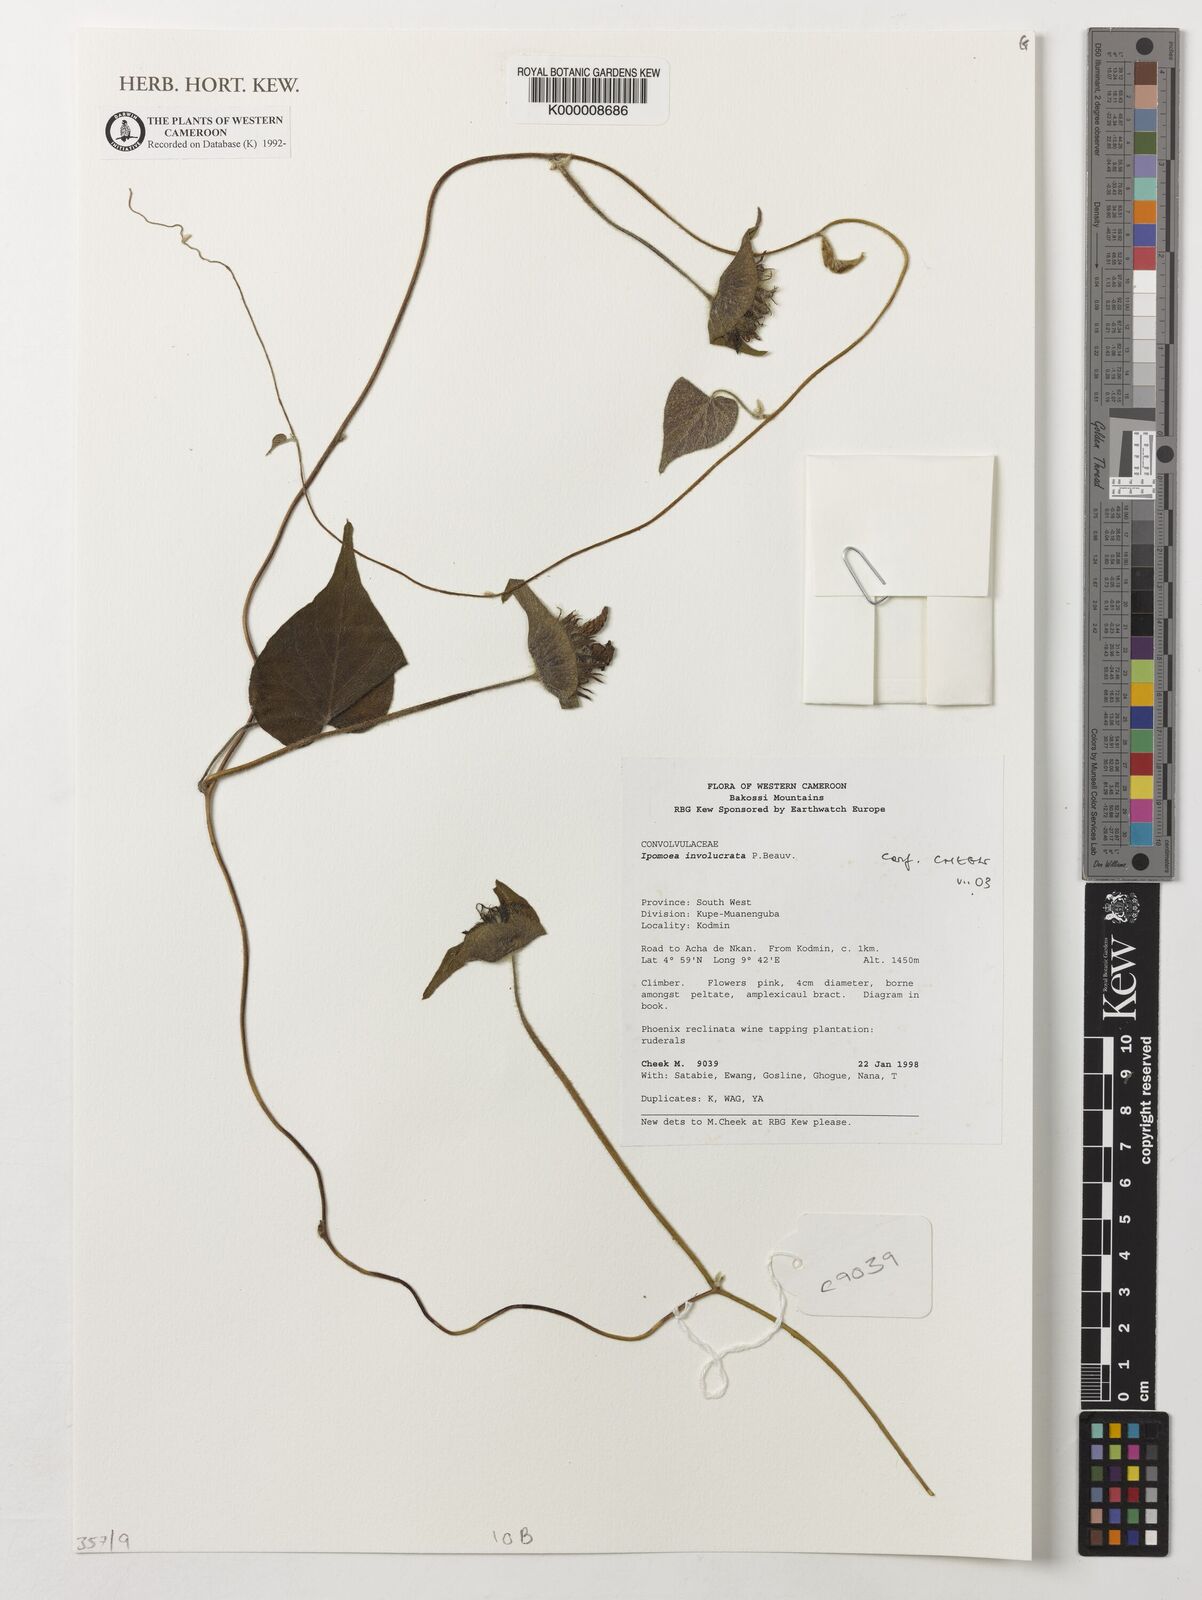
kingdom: Plantae
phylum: Tracheophyta
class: Magnoliopsida
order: Solanales
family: Convolvulaceae
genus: Ipomoea
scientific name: Ipomoea involucrata
